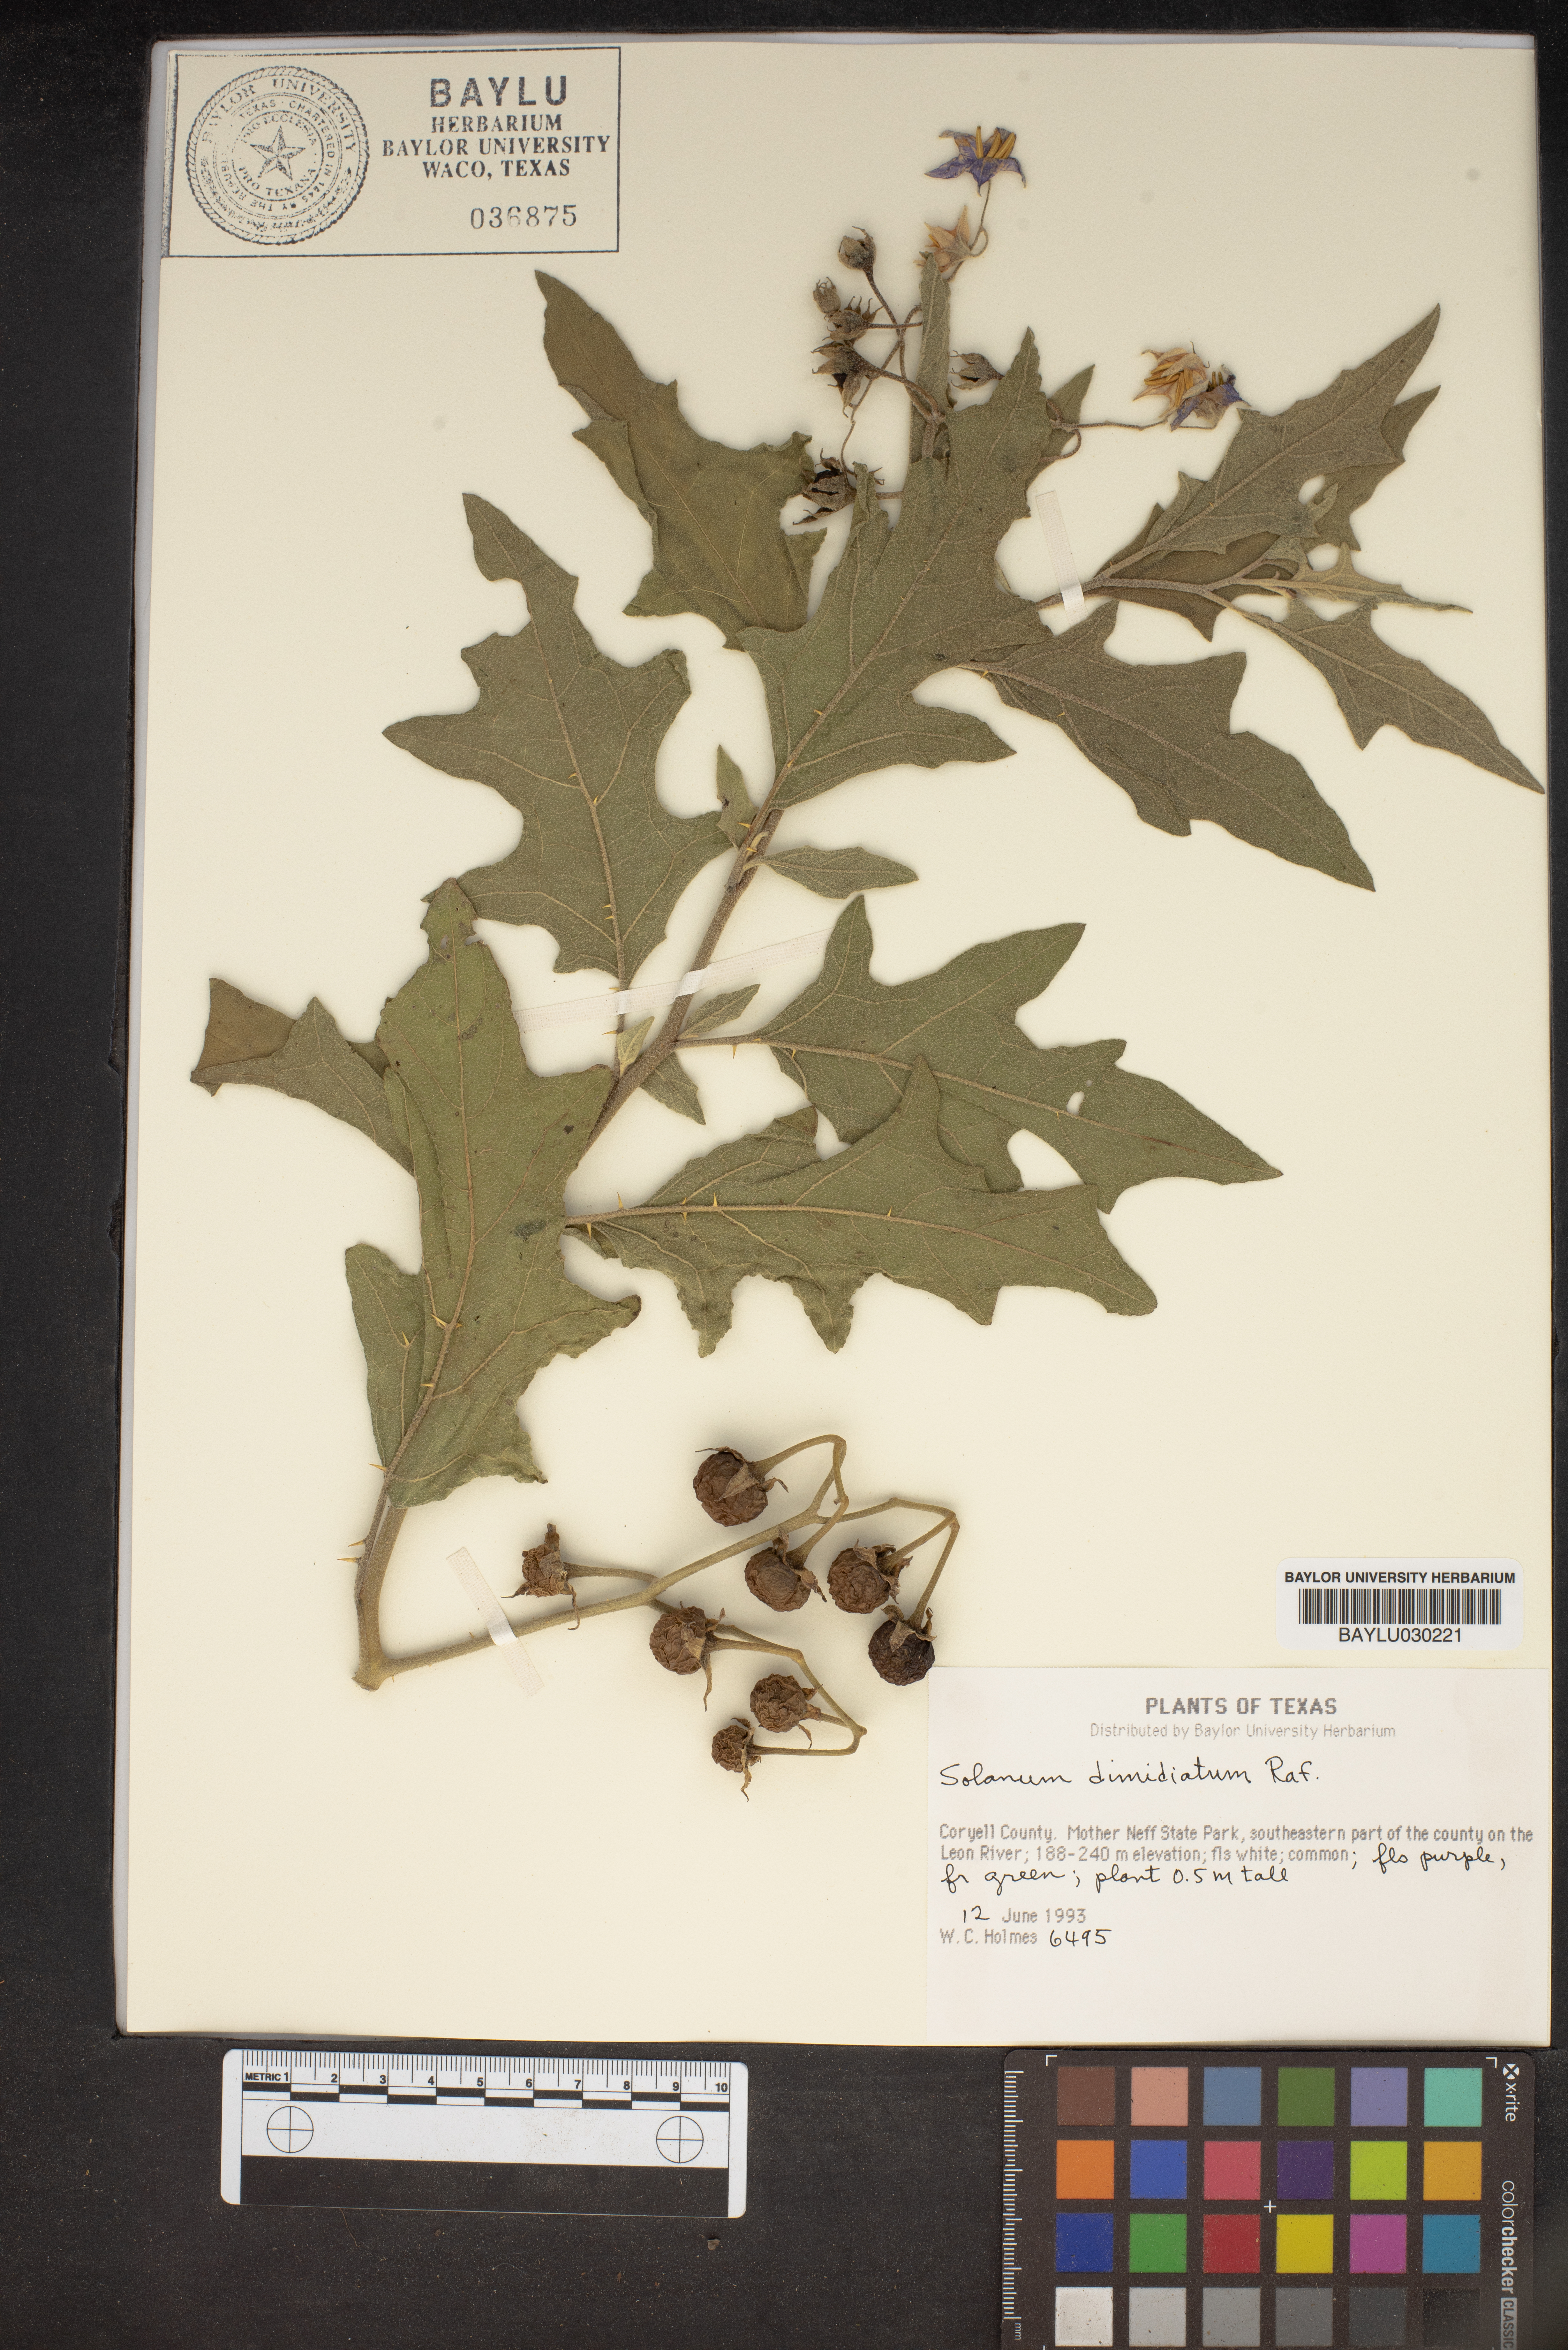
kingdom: Plantae
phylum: Tracheophyta
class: Magnoliopsida
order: Solanales
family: Solanaceae
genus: Solanum
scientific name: Solanum dimidiatum
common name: Carolina horse-nettle
